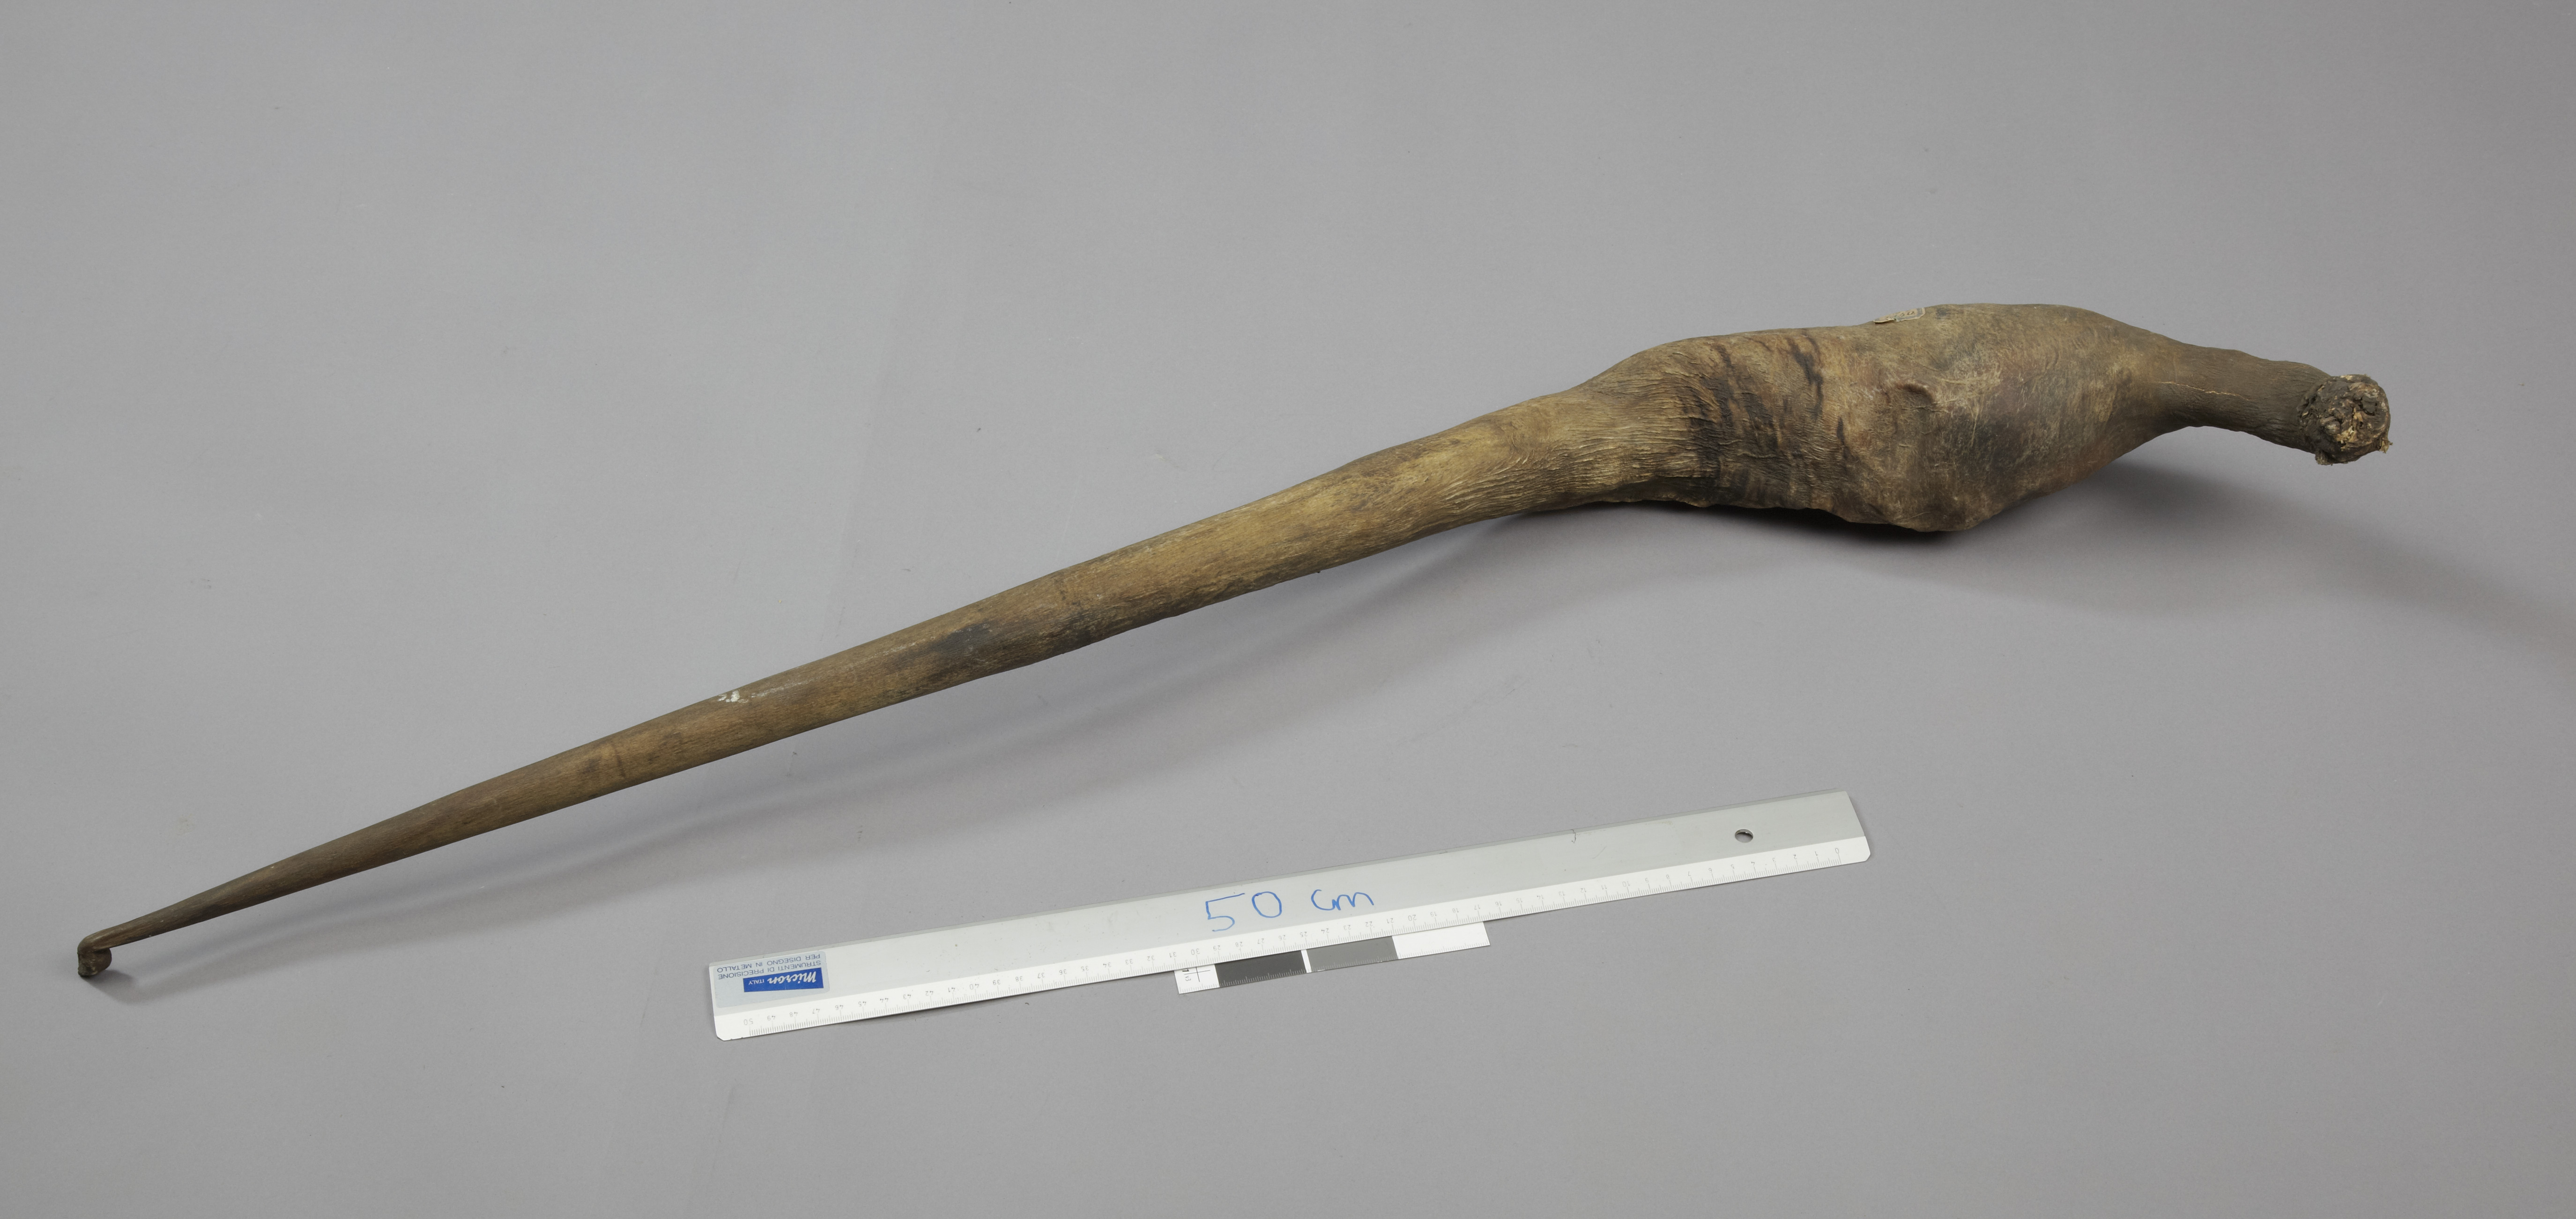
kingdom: Animalia
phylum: Chordata
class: Mammalia
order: Cetacea
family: Balaenopteridae
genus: Balaenoptera
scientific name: Balaenoptera musculus
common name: Blue whale
